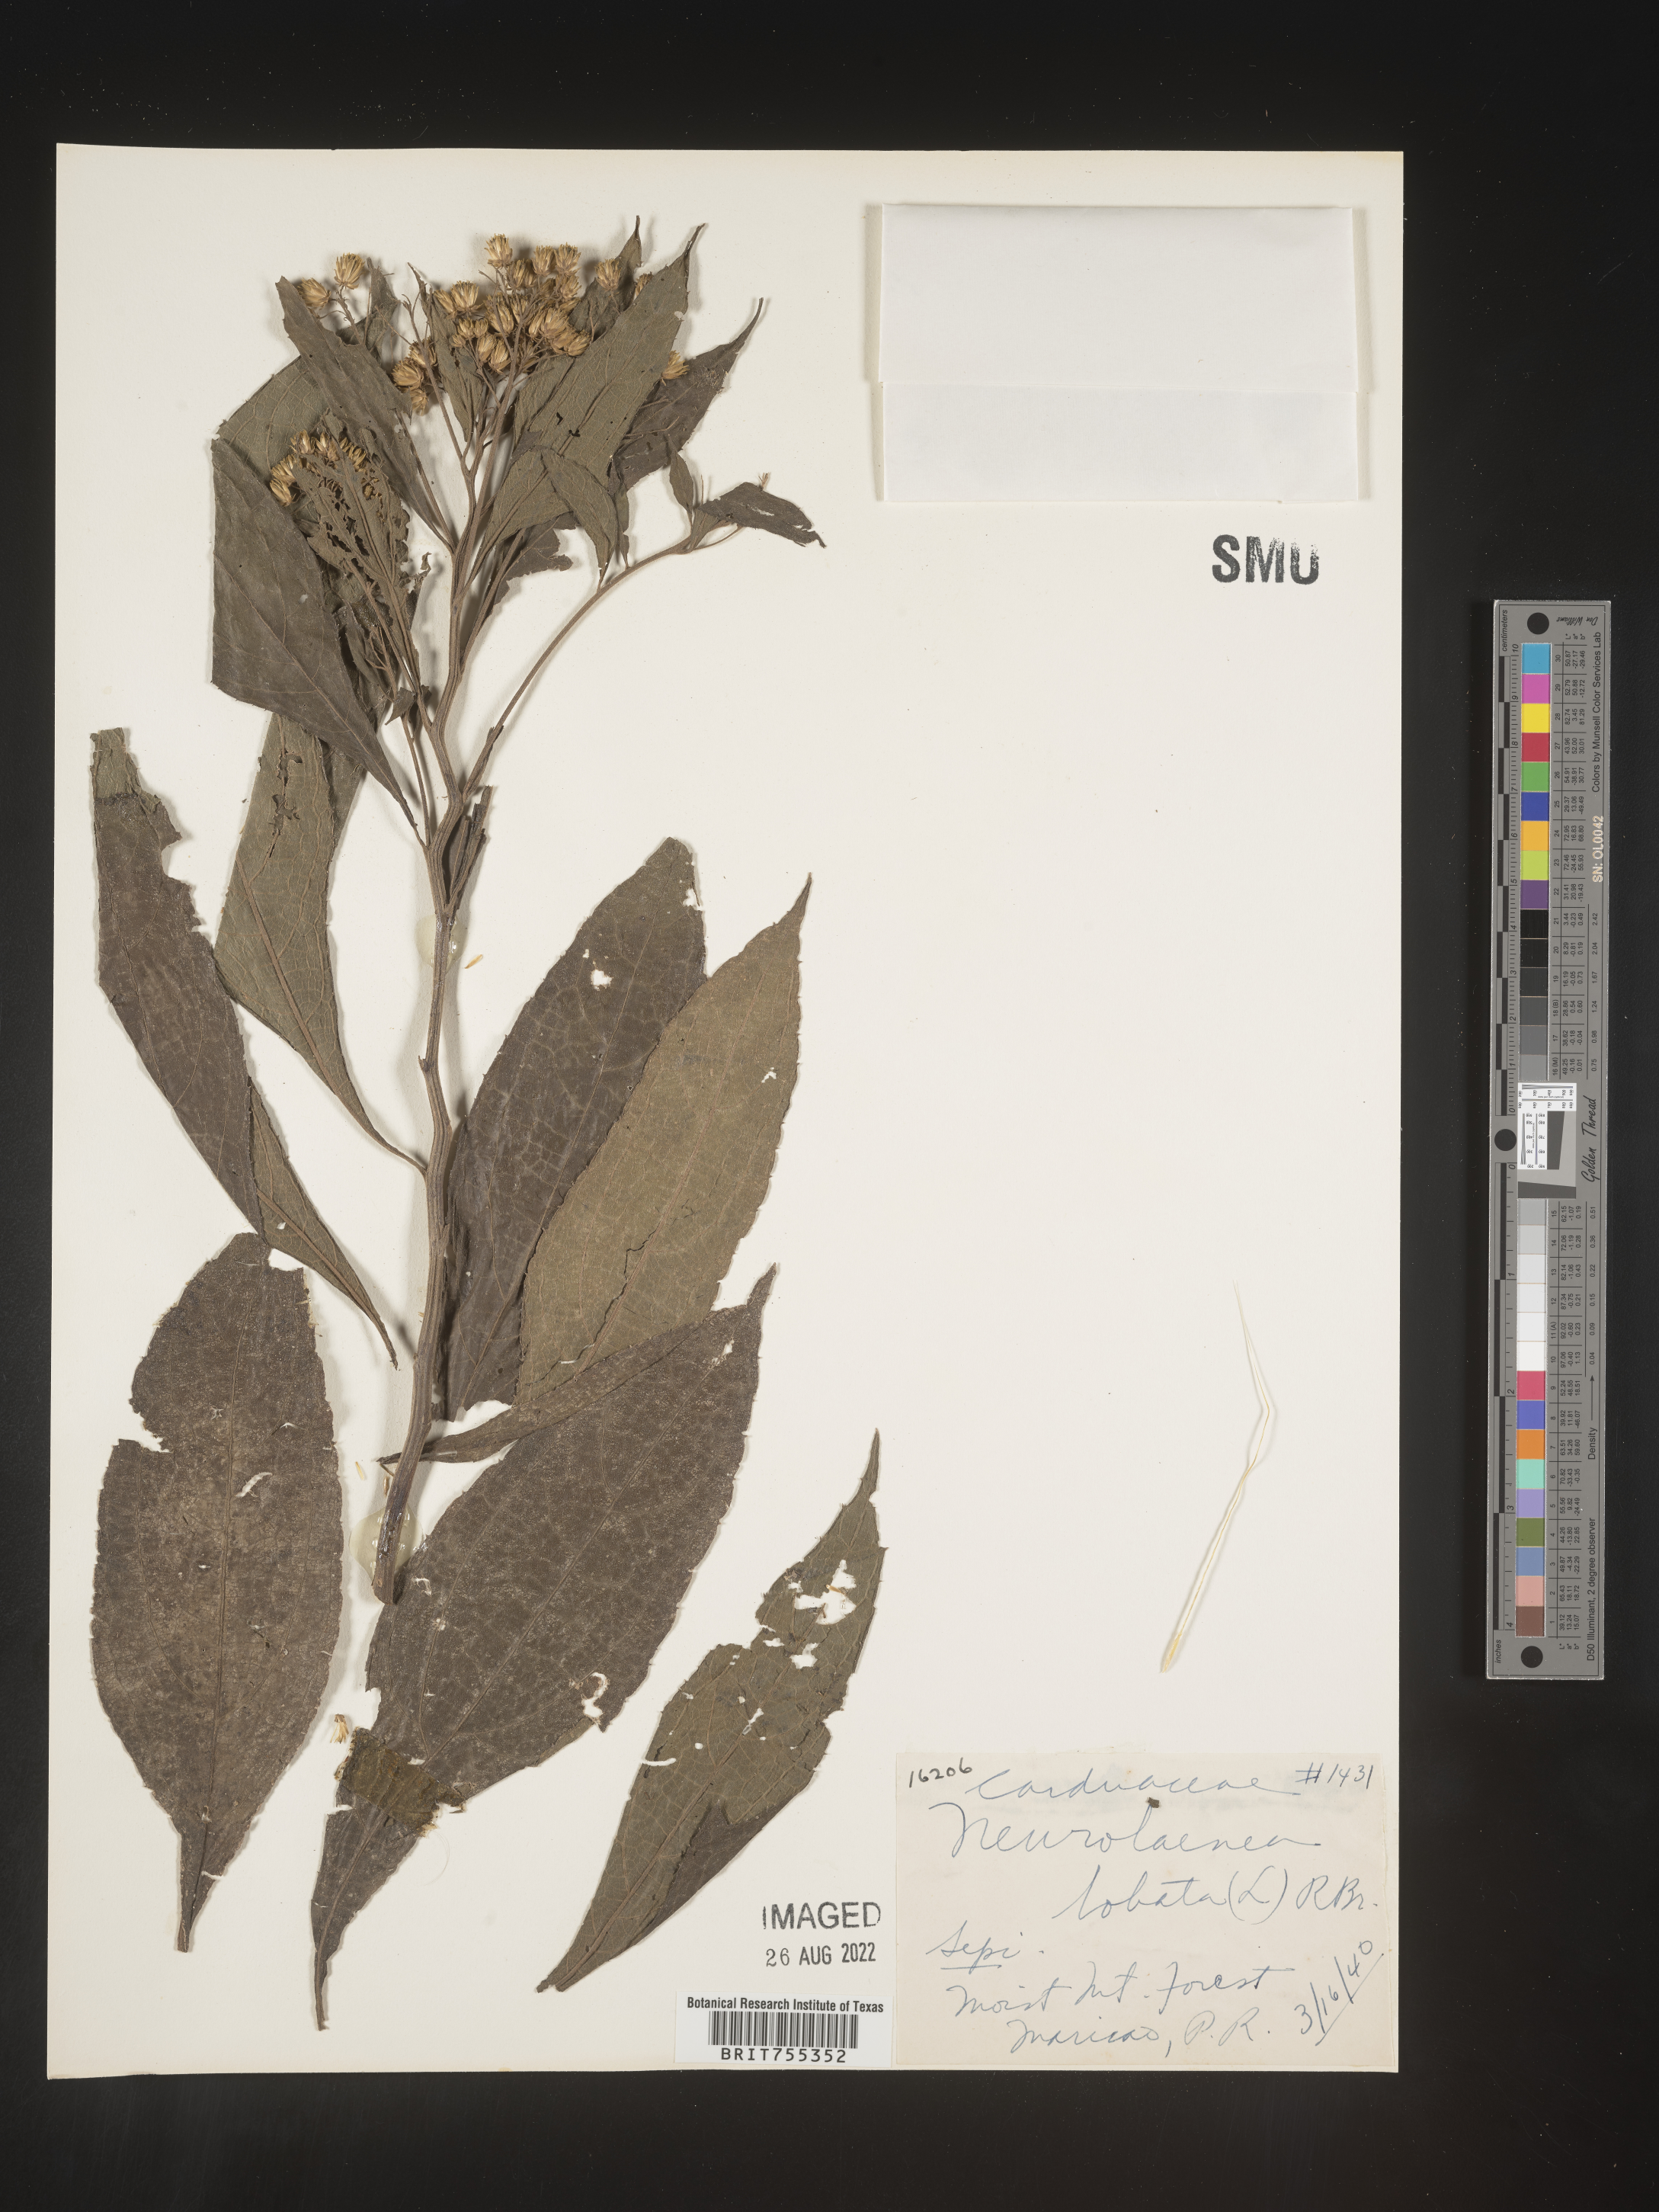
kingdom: Plantae
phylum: Tracheophyta
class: Magnoliopsida
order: Asterales
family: Asteraceae
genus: Neurolaena
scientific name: Neurolaena
